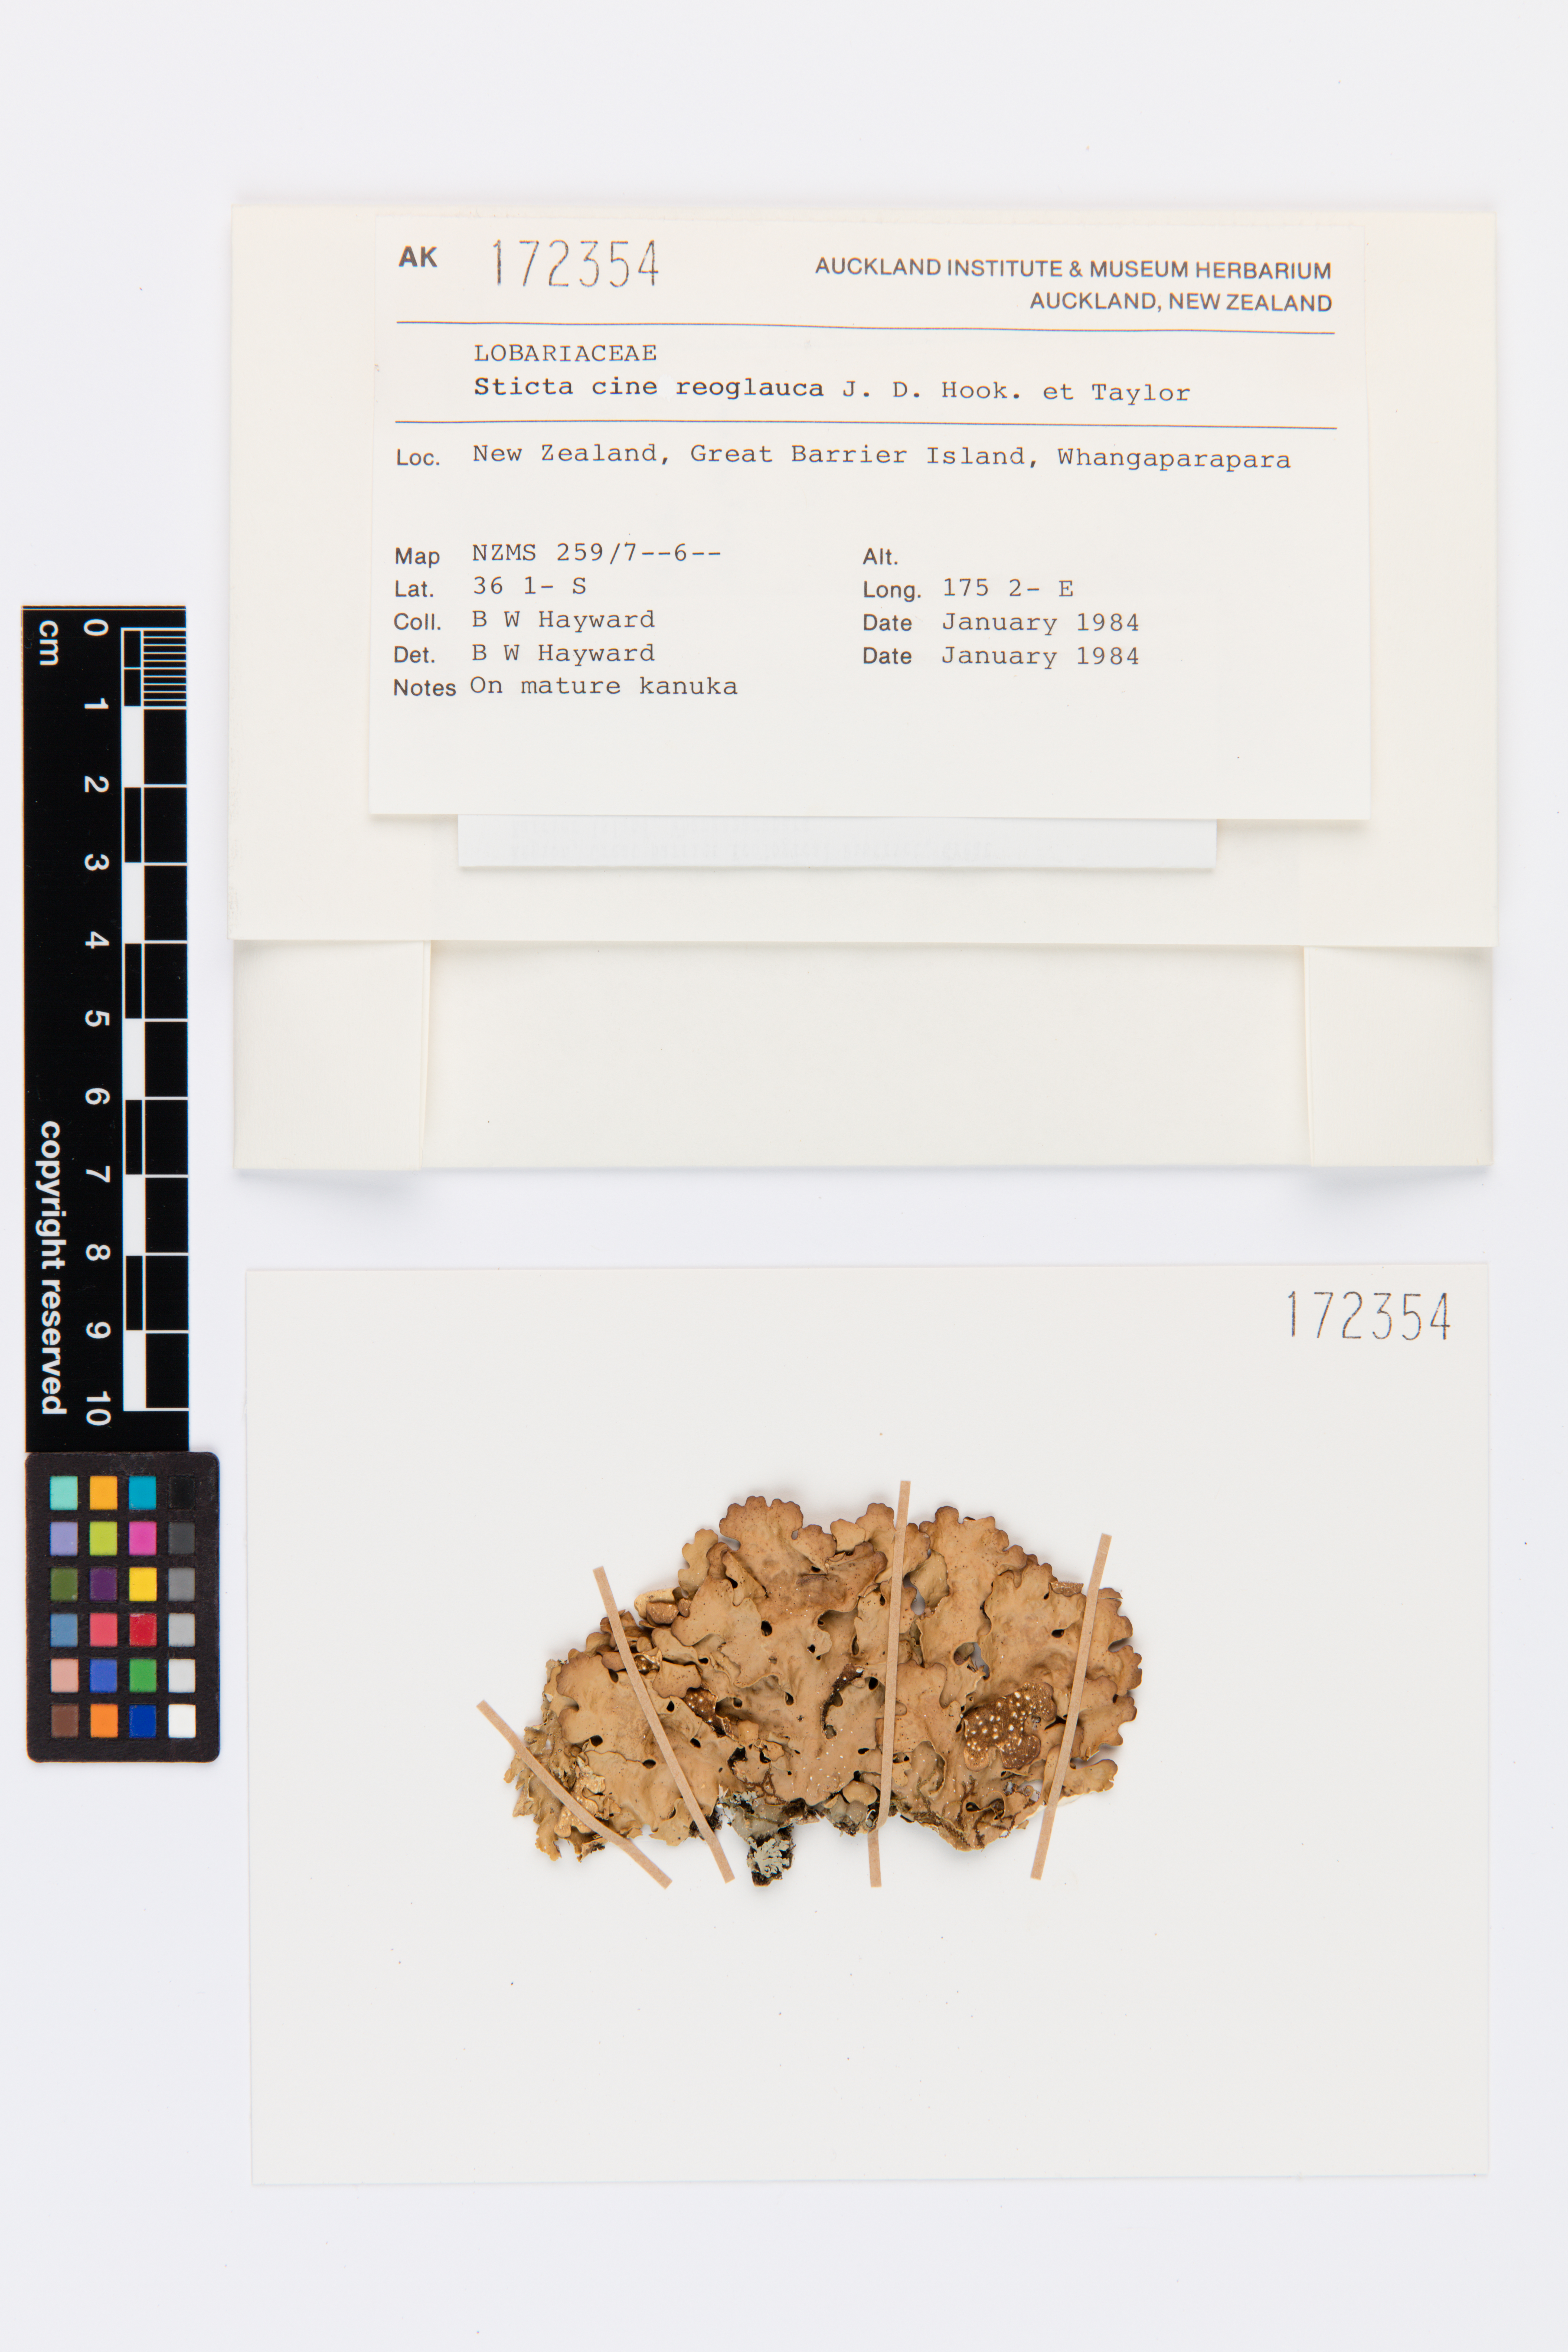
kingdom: Fungi
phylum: Ascomycota
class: Lecanoromycetes
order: Peltigerales
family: Lobariaceae
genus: Sticta
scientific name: Sticta cinereoglauca
